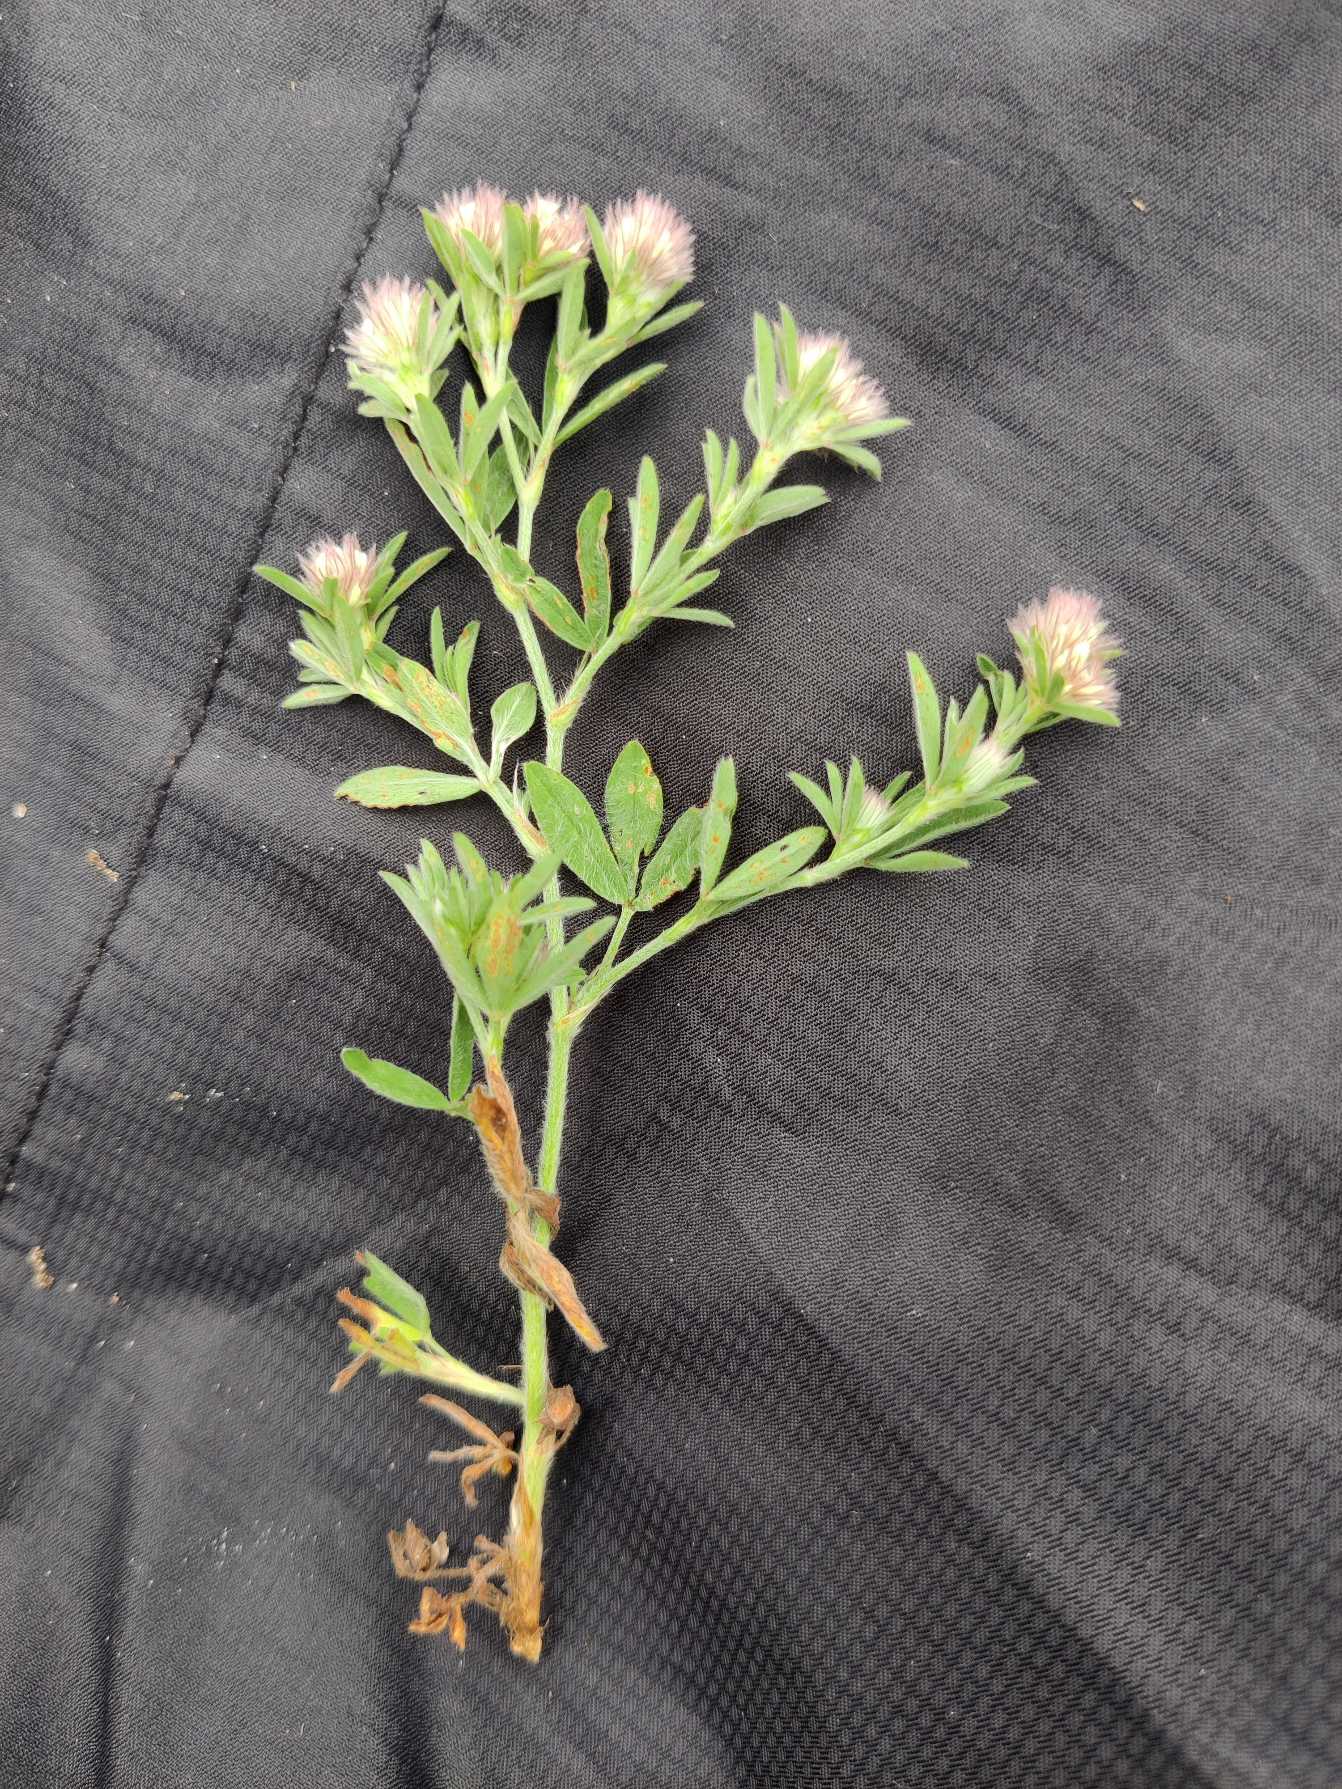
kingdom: Plantae
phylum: Tracheophyta
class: Magnoliopsida
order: Fabales
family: Fabaceae
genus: Trifolium
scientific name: Trifolium arvense
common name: Hare-kløver
